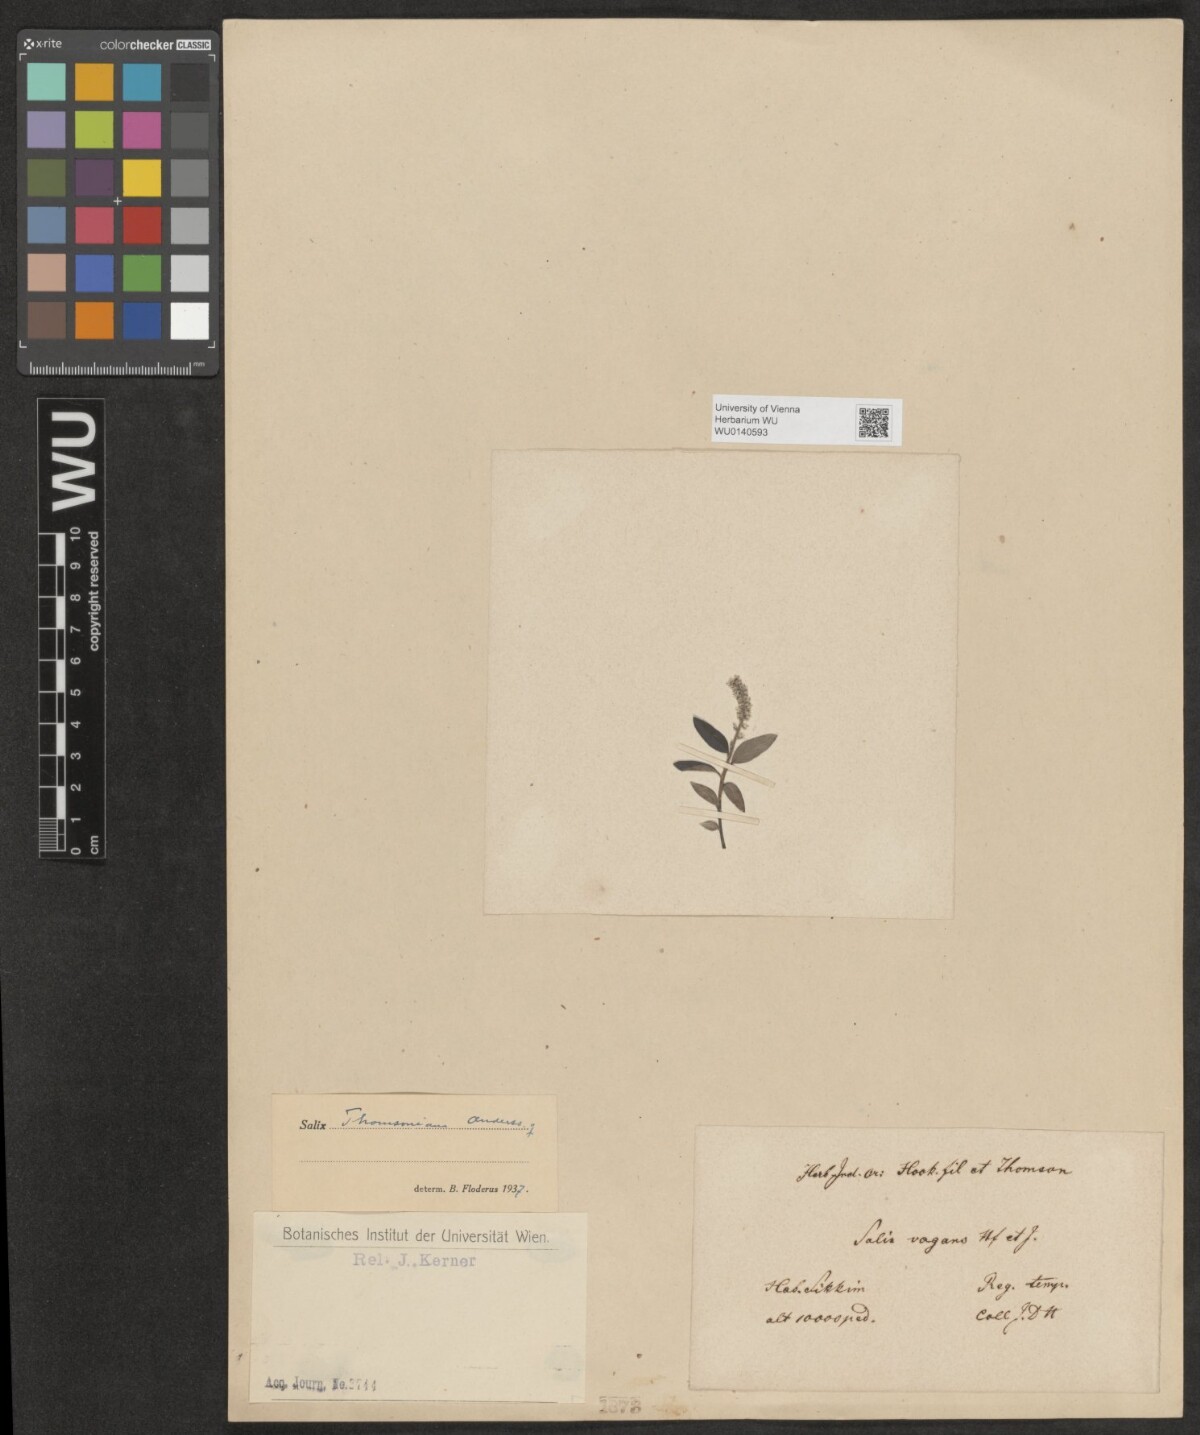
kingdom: Plantae
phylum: Tracheophyta
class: Magnoliopsida
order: Malpighiales
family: Salicaceae
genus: Salix
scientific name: Salix thomsoniana
